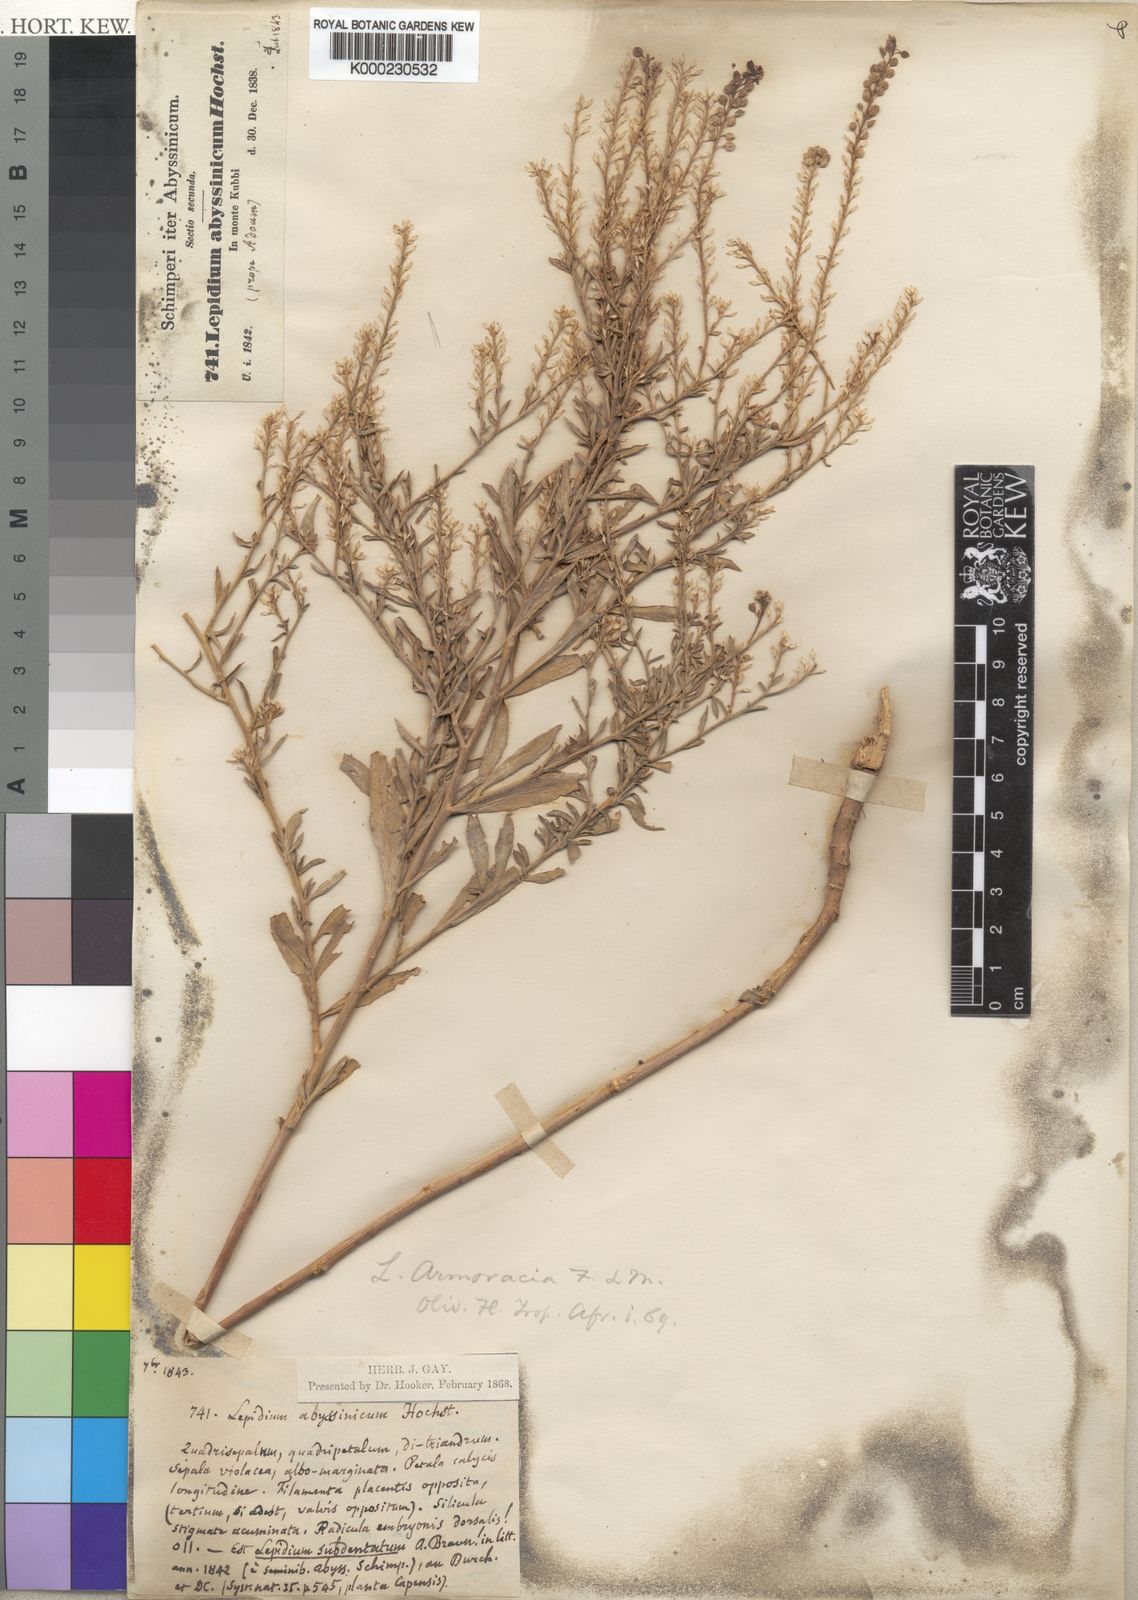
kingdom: Plantae
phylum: Tracheophyta
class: Magnoliopsida
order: Brassicales
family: Brassicaceae
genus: Lepidium
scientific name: Lepidium
